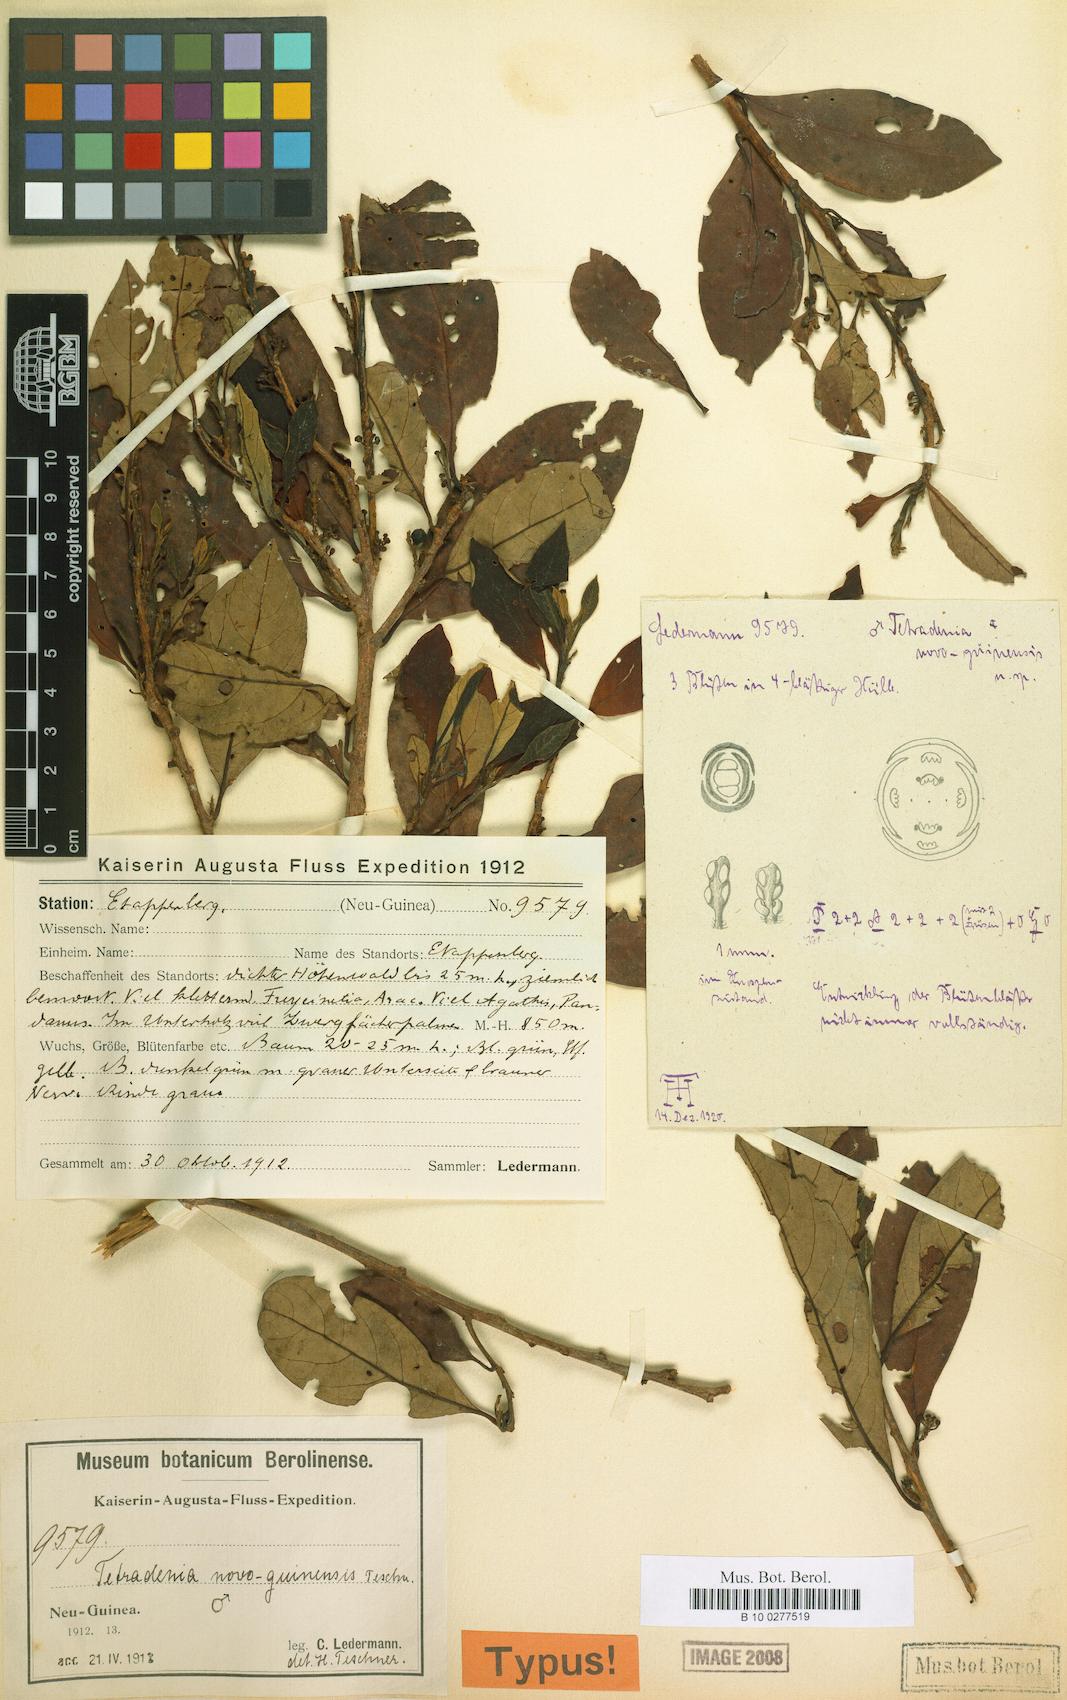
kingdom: Plantae
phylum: Tracheophyta
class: Magnoliopsida
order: Laurales
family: Lauraceae
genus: Litsea
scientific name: Litsea teschneri
